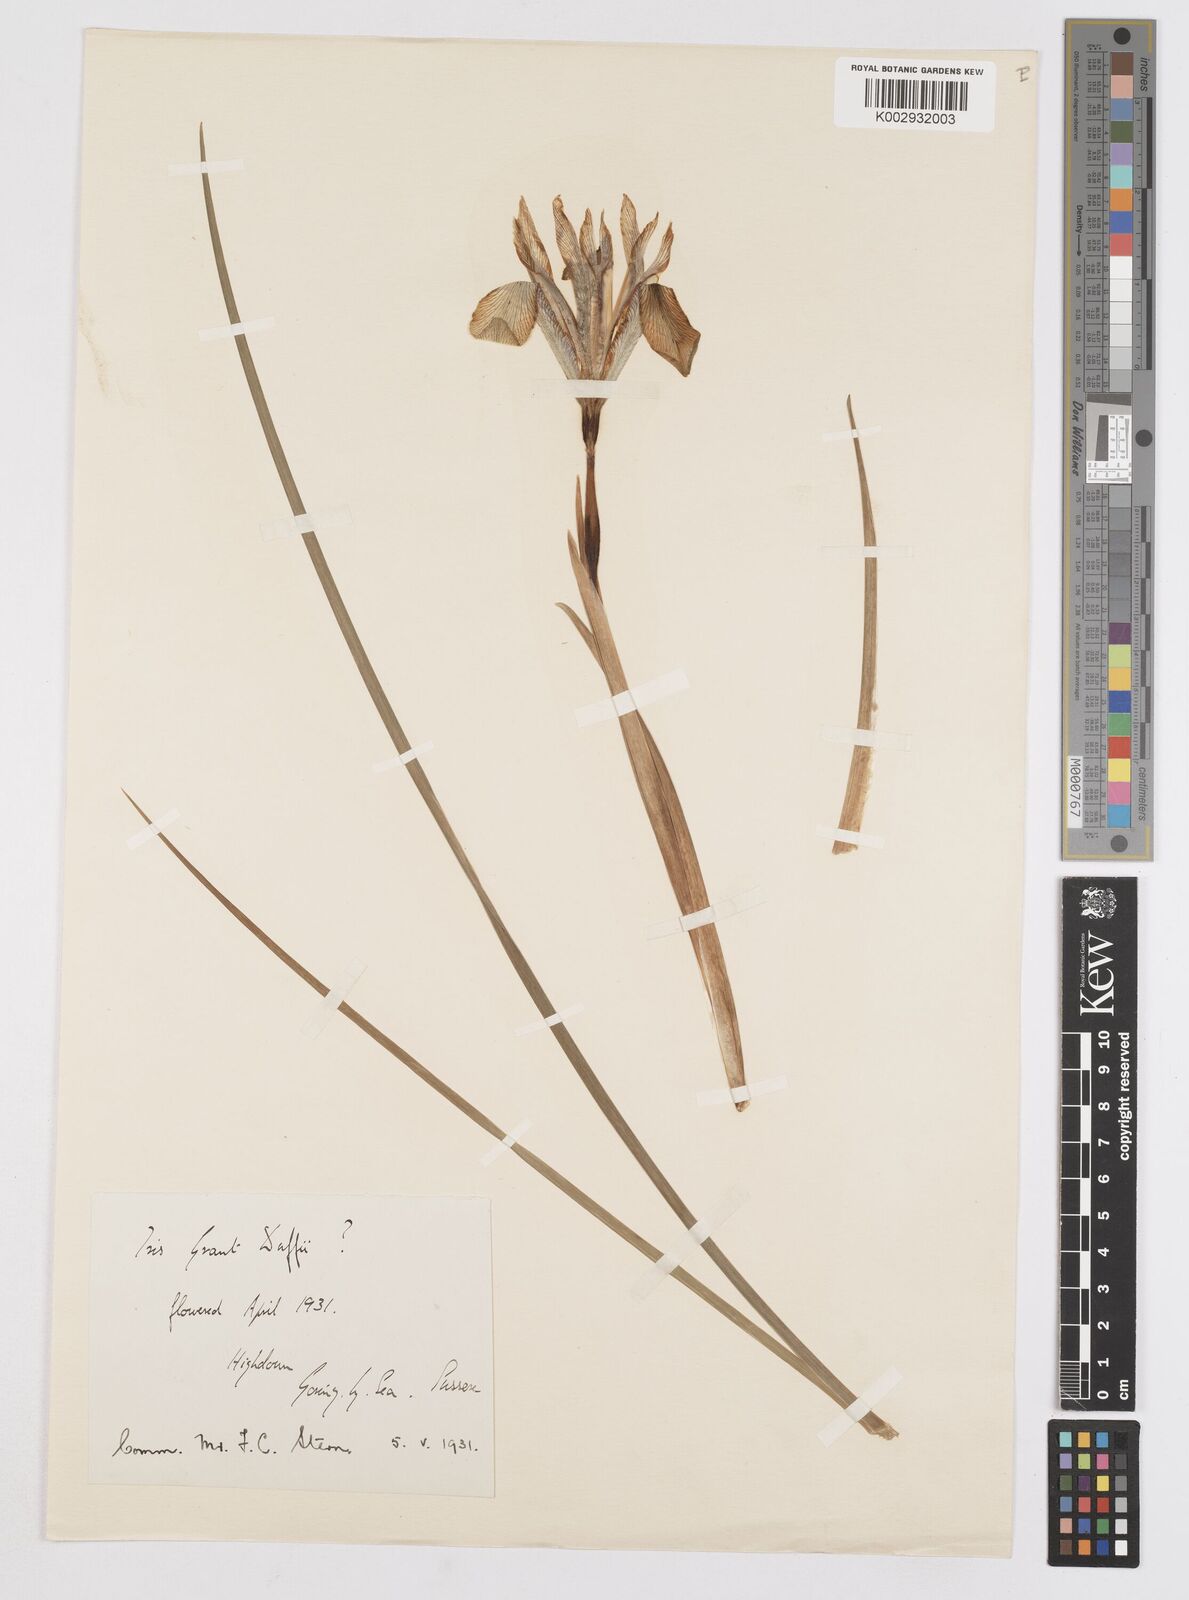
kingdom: Plantae
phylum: Tracheophyta
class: Liliopsida
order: Asparagales
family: Iridaceae
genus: Iris
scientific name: Iris grant-duffii
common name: Grant duff's iris
